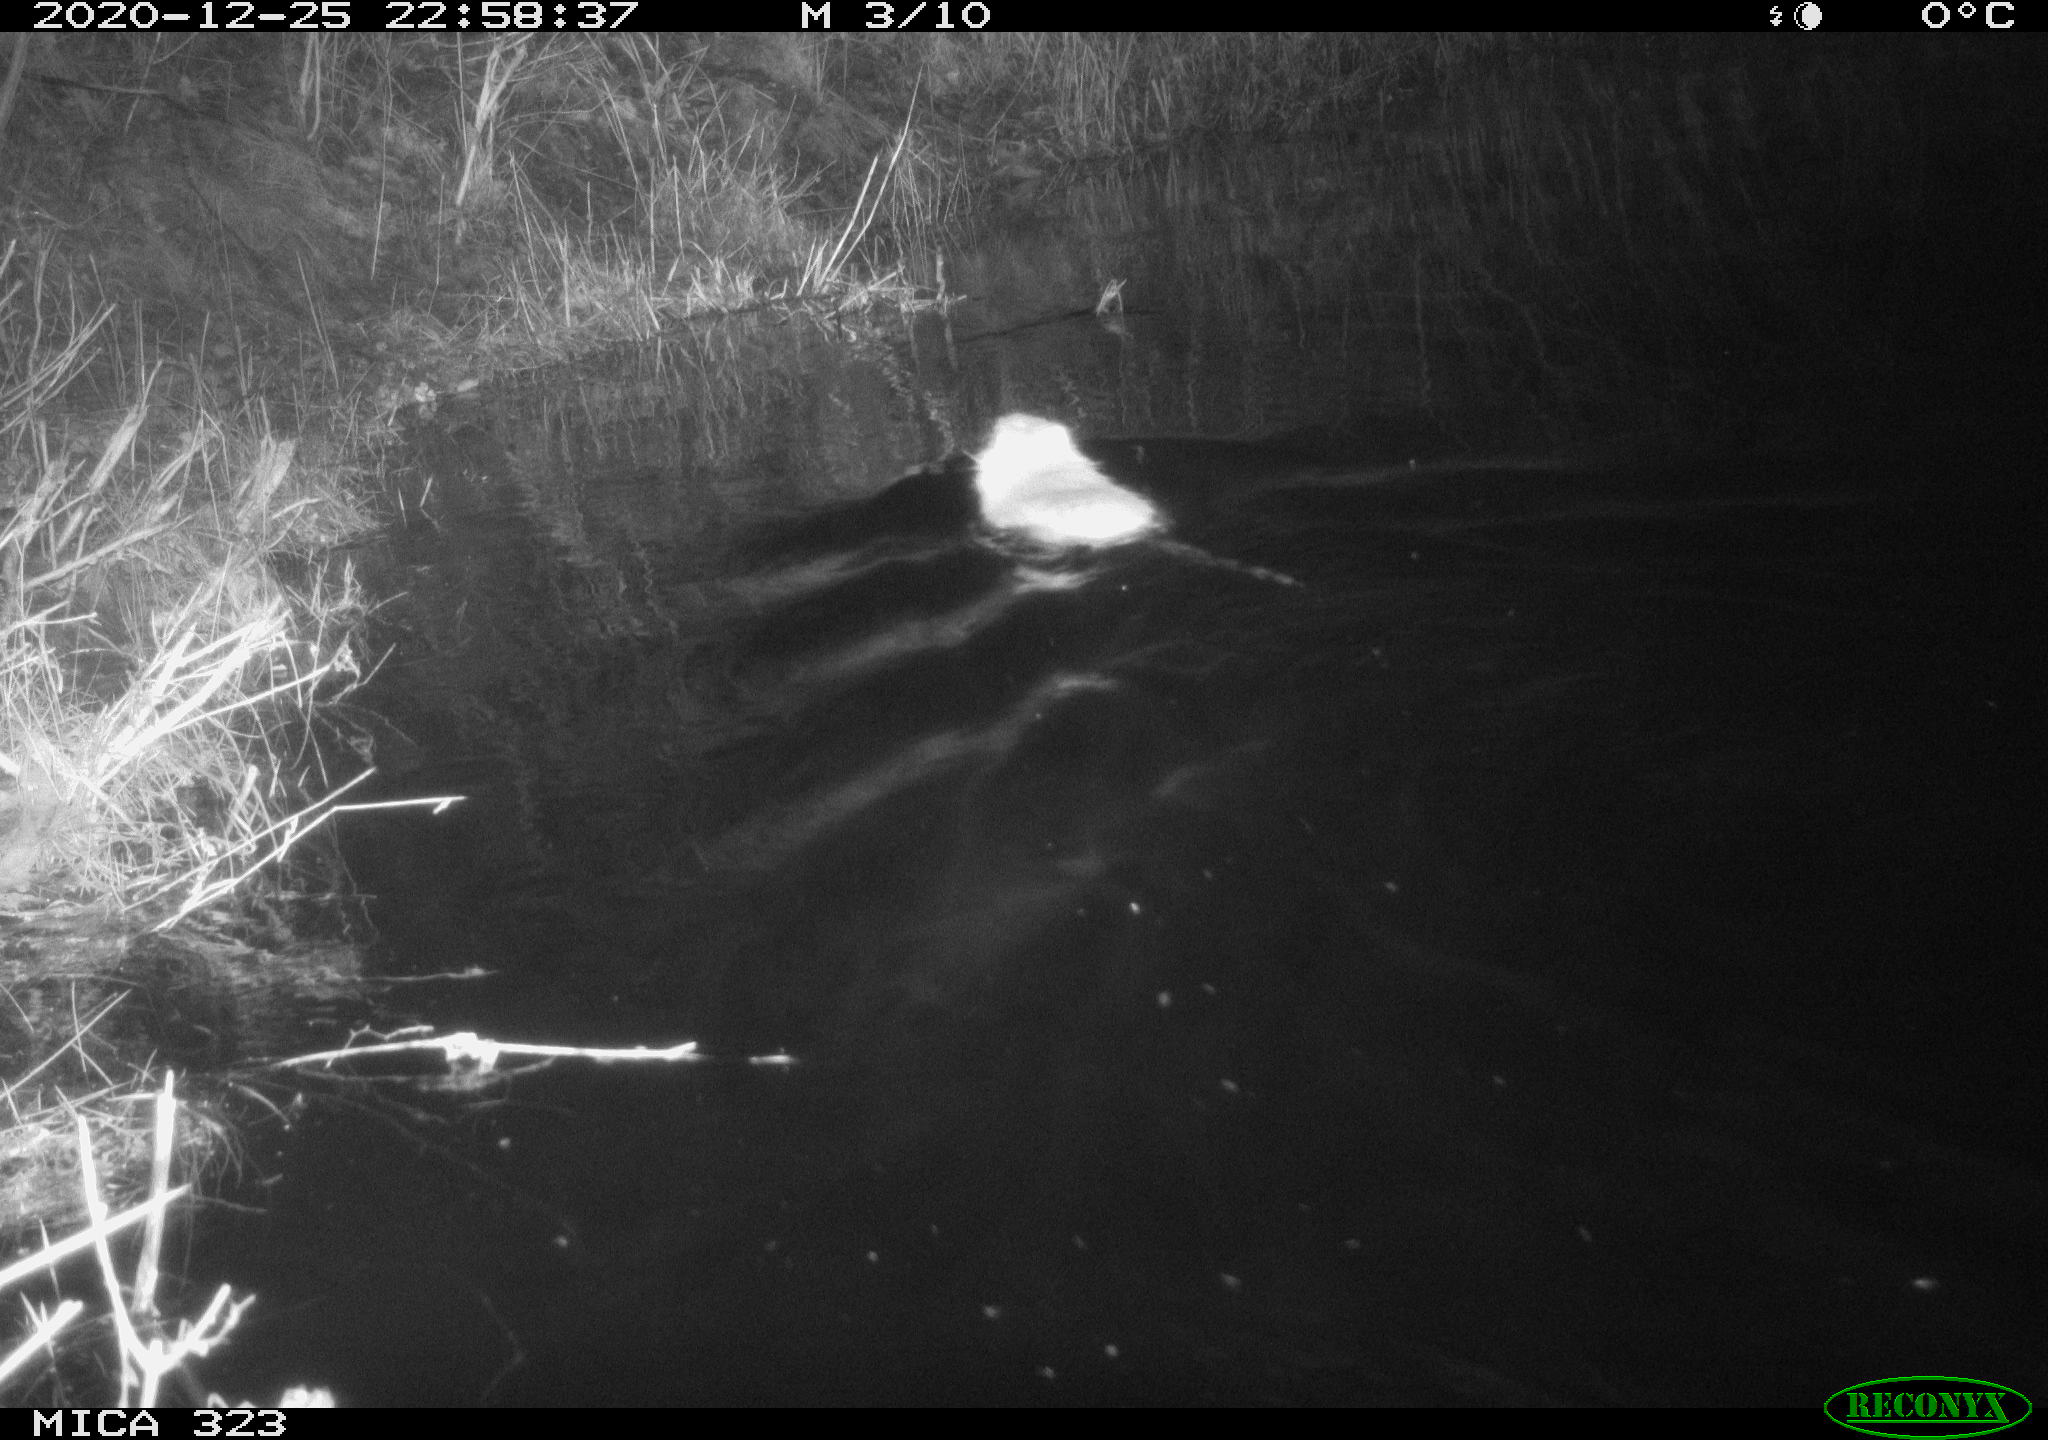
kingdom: Animalia
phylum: Chordata
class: Mammalia
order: Rodentia
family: Myocastoridae
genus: Myocastor
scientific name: Myocastor coypus
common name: Coypu
